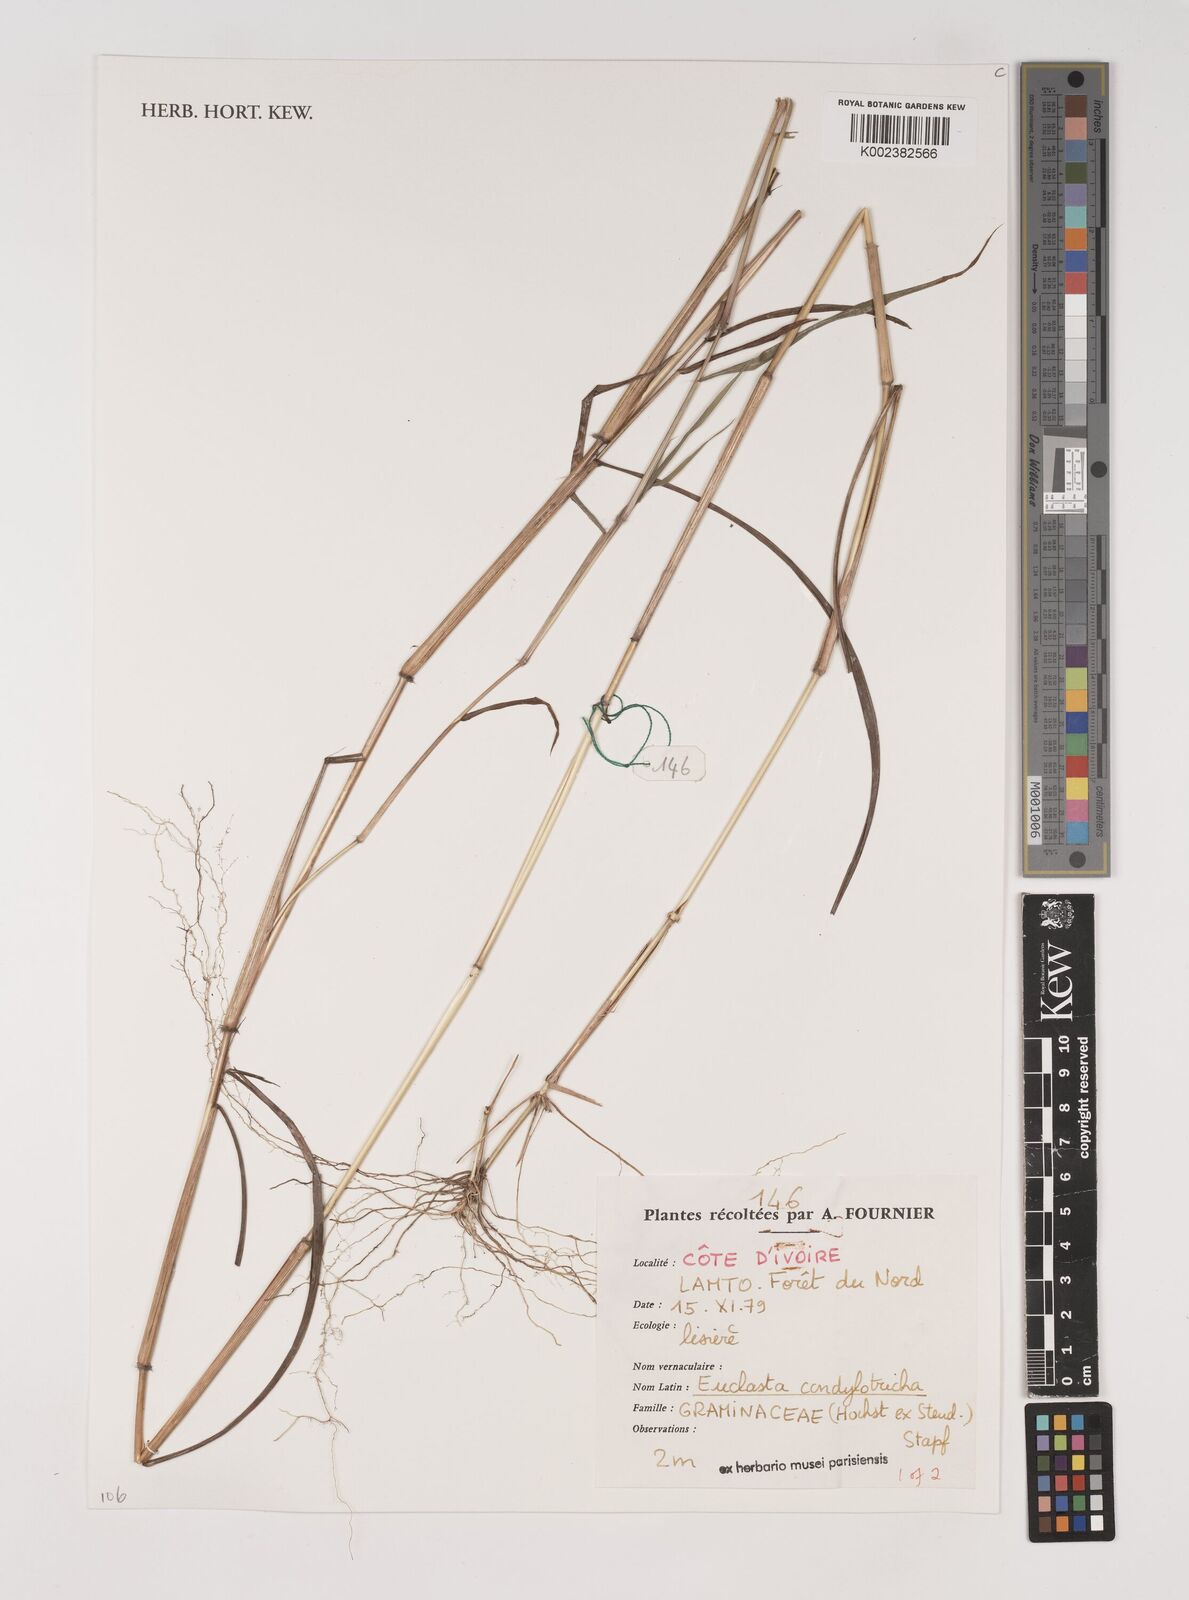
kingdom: Plantae
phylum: Tracheophyta
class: Liliopsida
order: Poales
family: Poaceae
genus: Euclasta
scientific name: Euclasta condylotricha
